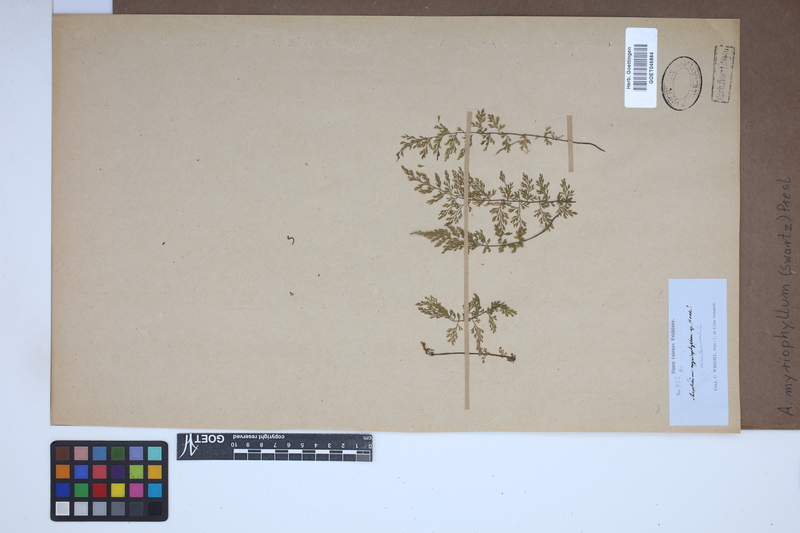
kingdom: Plantae
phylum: Tracheophyta
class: Polypodiopsida
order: Polypodiales
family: Aspleniaceae
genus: Asplenium
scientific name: Asplenium myriophyllum
